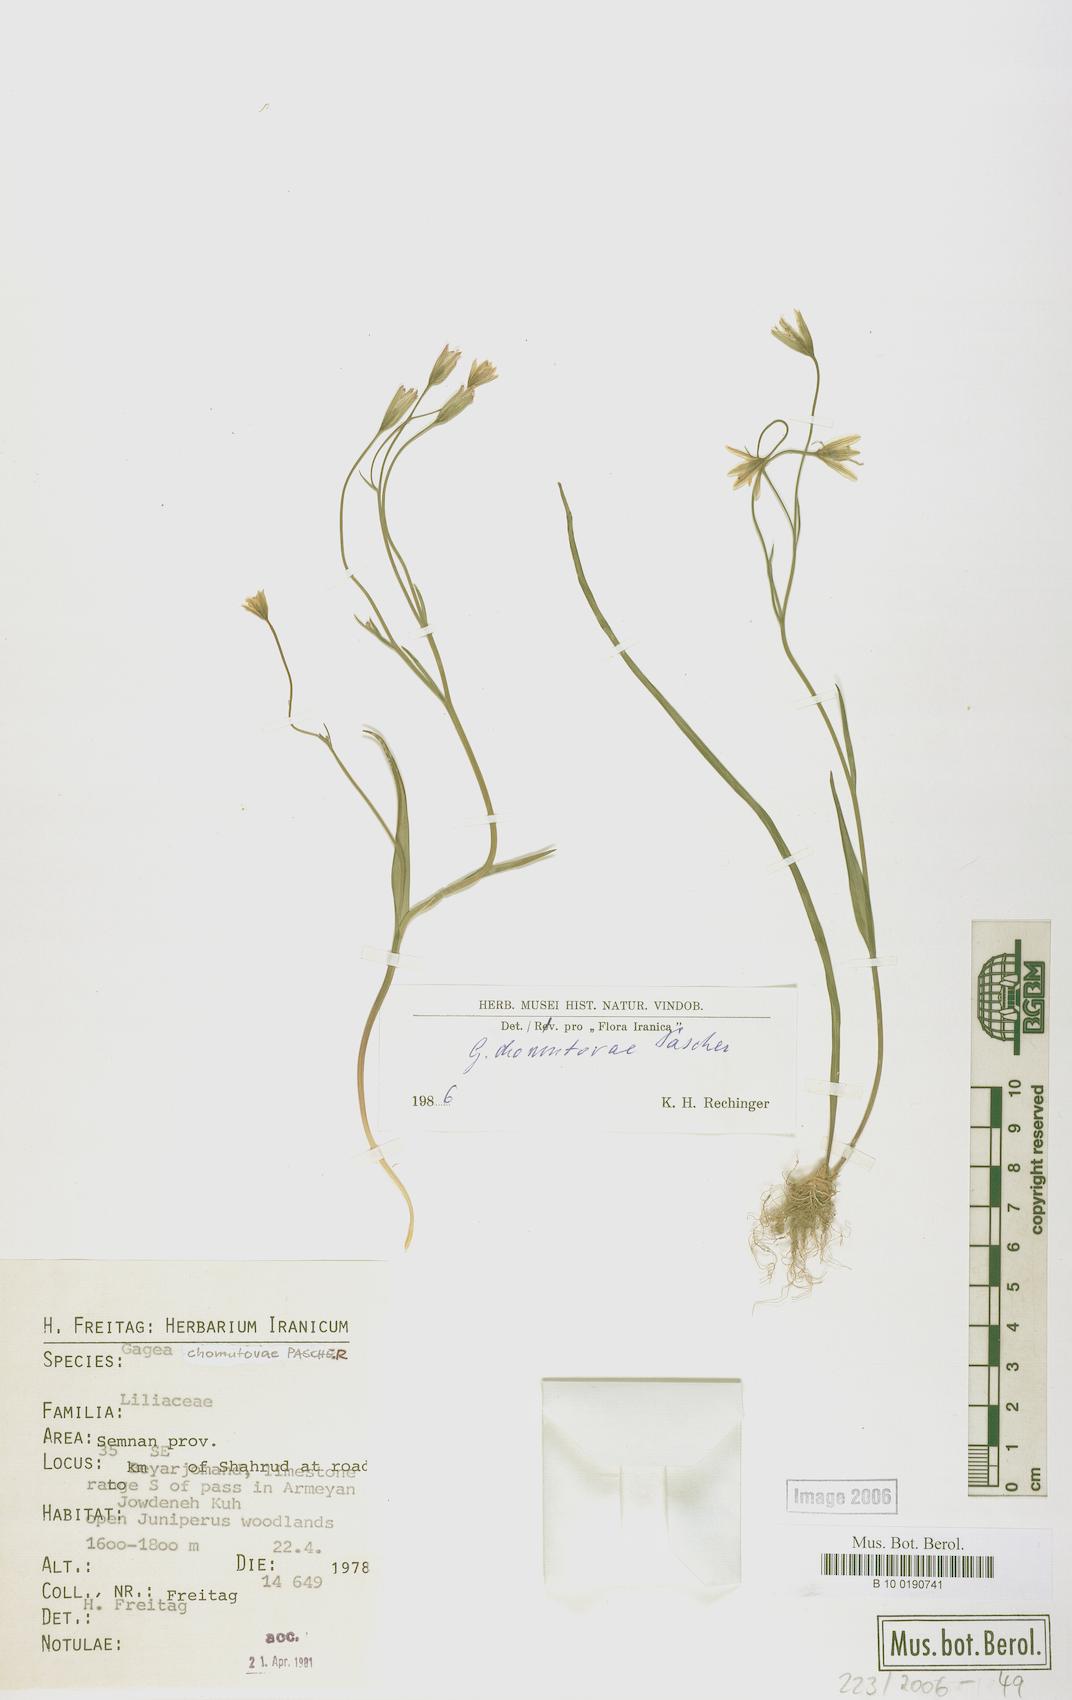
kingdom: Plantae
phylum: Tracheophyta
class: Liliopsida
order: Liliales
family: Liliaceae
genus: Gagea
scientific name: Gagea chomutovae
